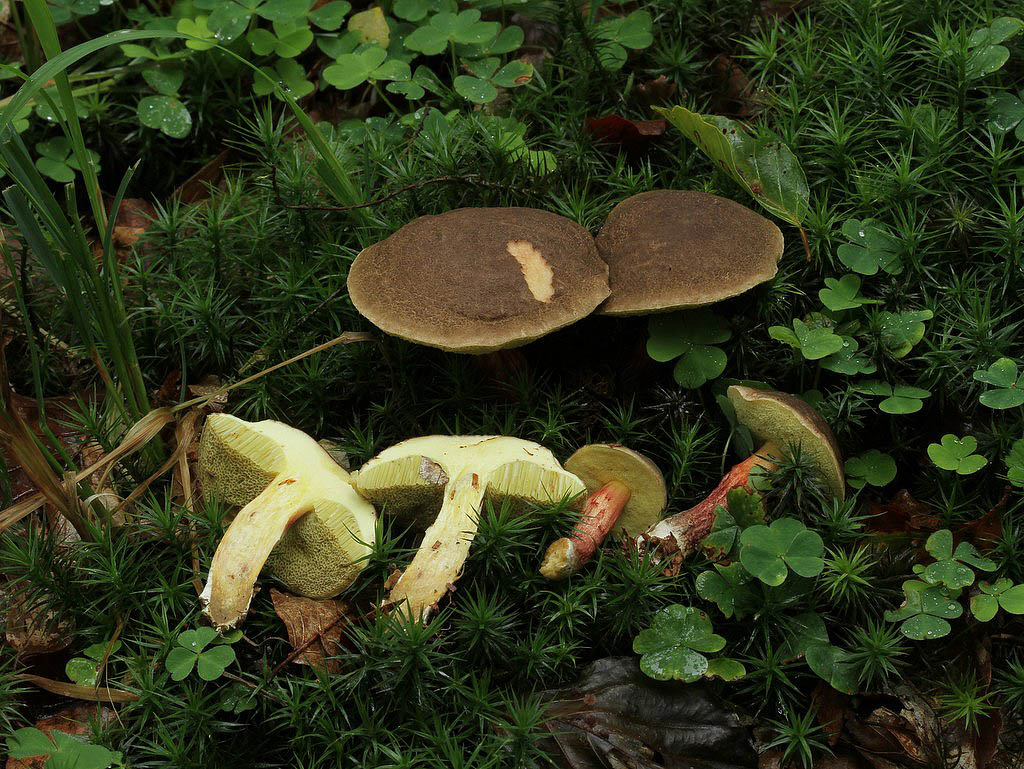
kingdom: Fungi
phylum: Basidiomycota
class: Agaricomycetes
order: Boletales
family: Boletaceae
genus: Xerocomellus
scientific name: Xerocomellus chrysenteron
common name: rødsprukken rørhat
